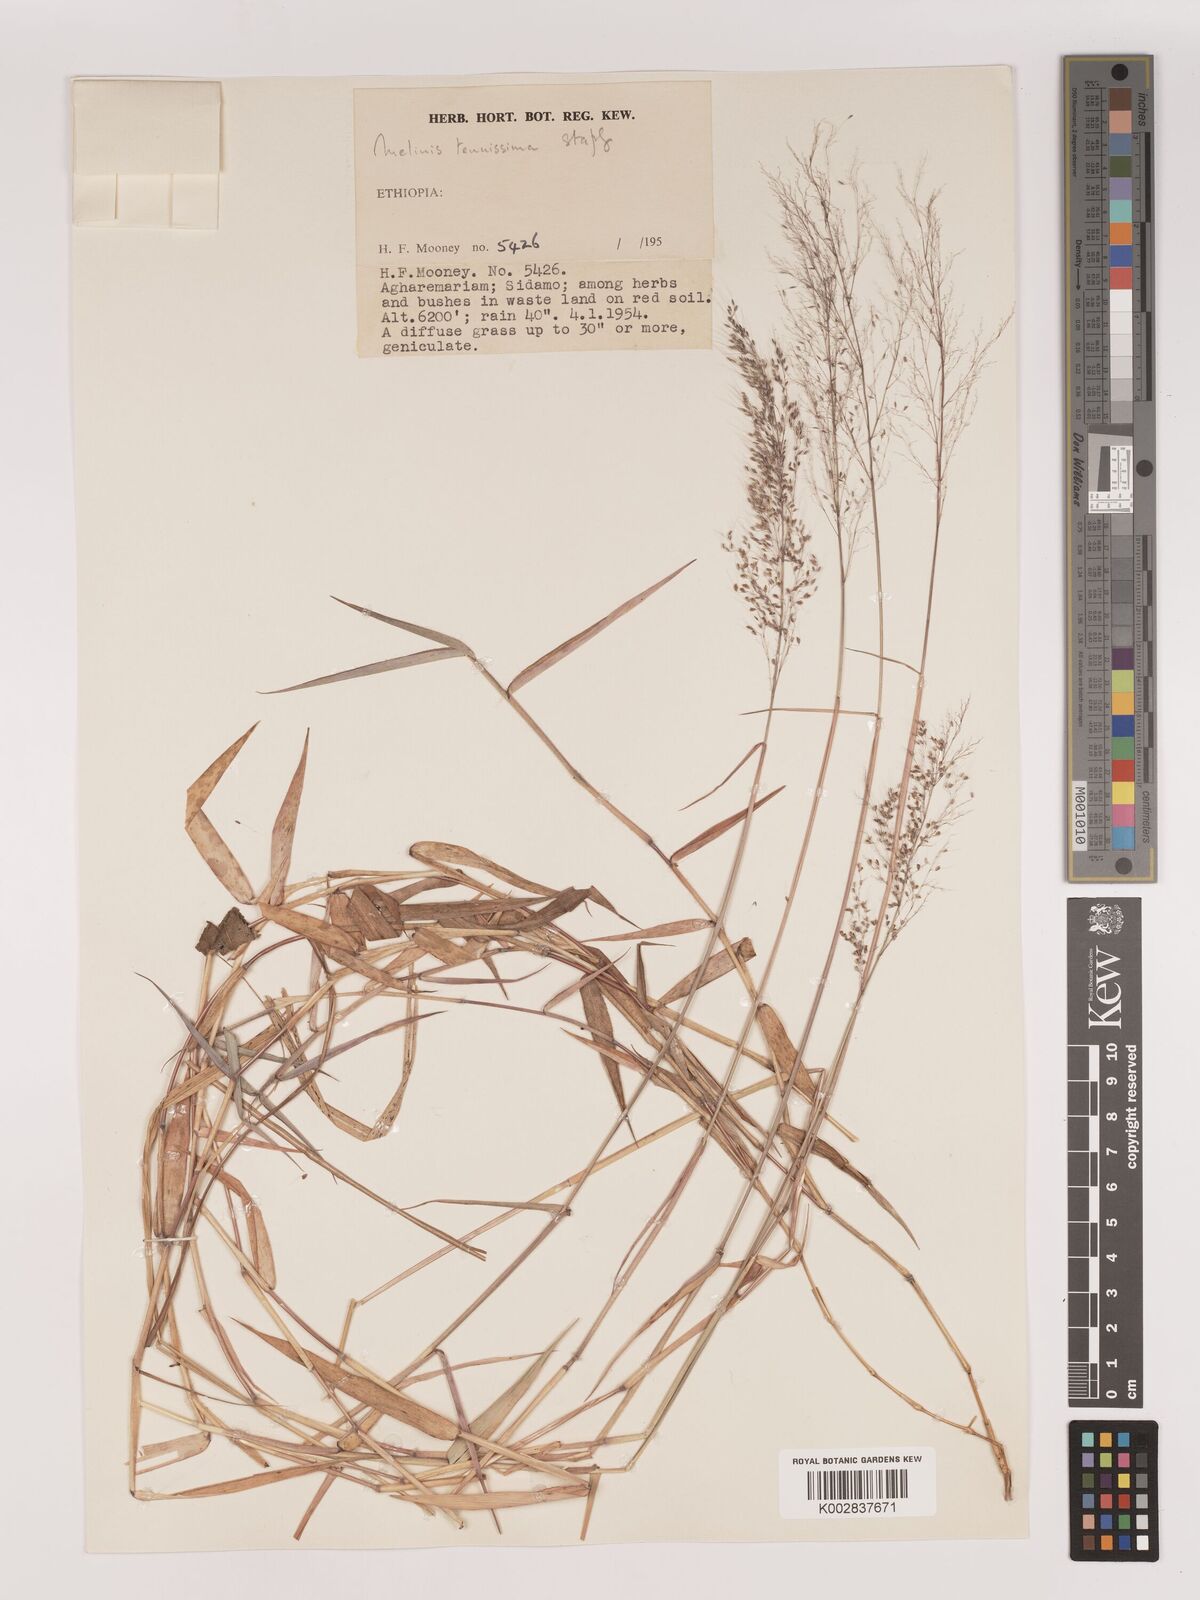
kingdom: Plantae
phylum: Tracheophyta
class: Liliopsida
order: Poales
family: Poaceae
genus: Melinis
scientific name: Melinis tenuissima
